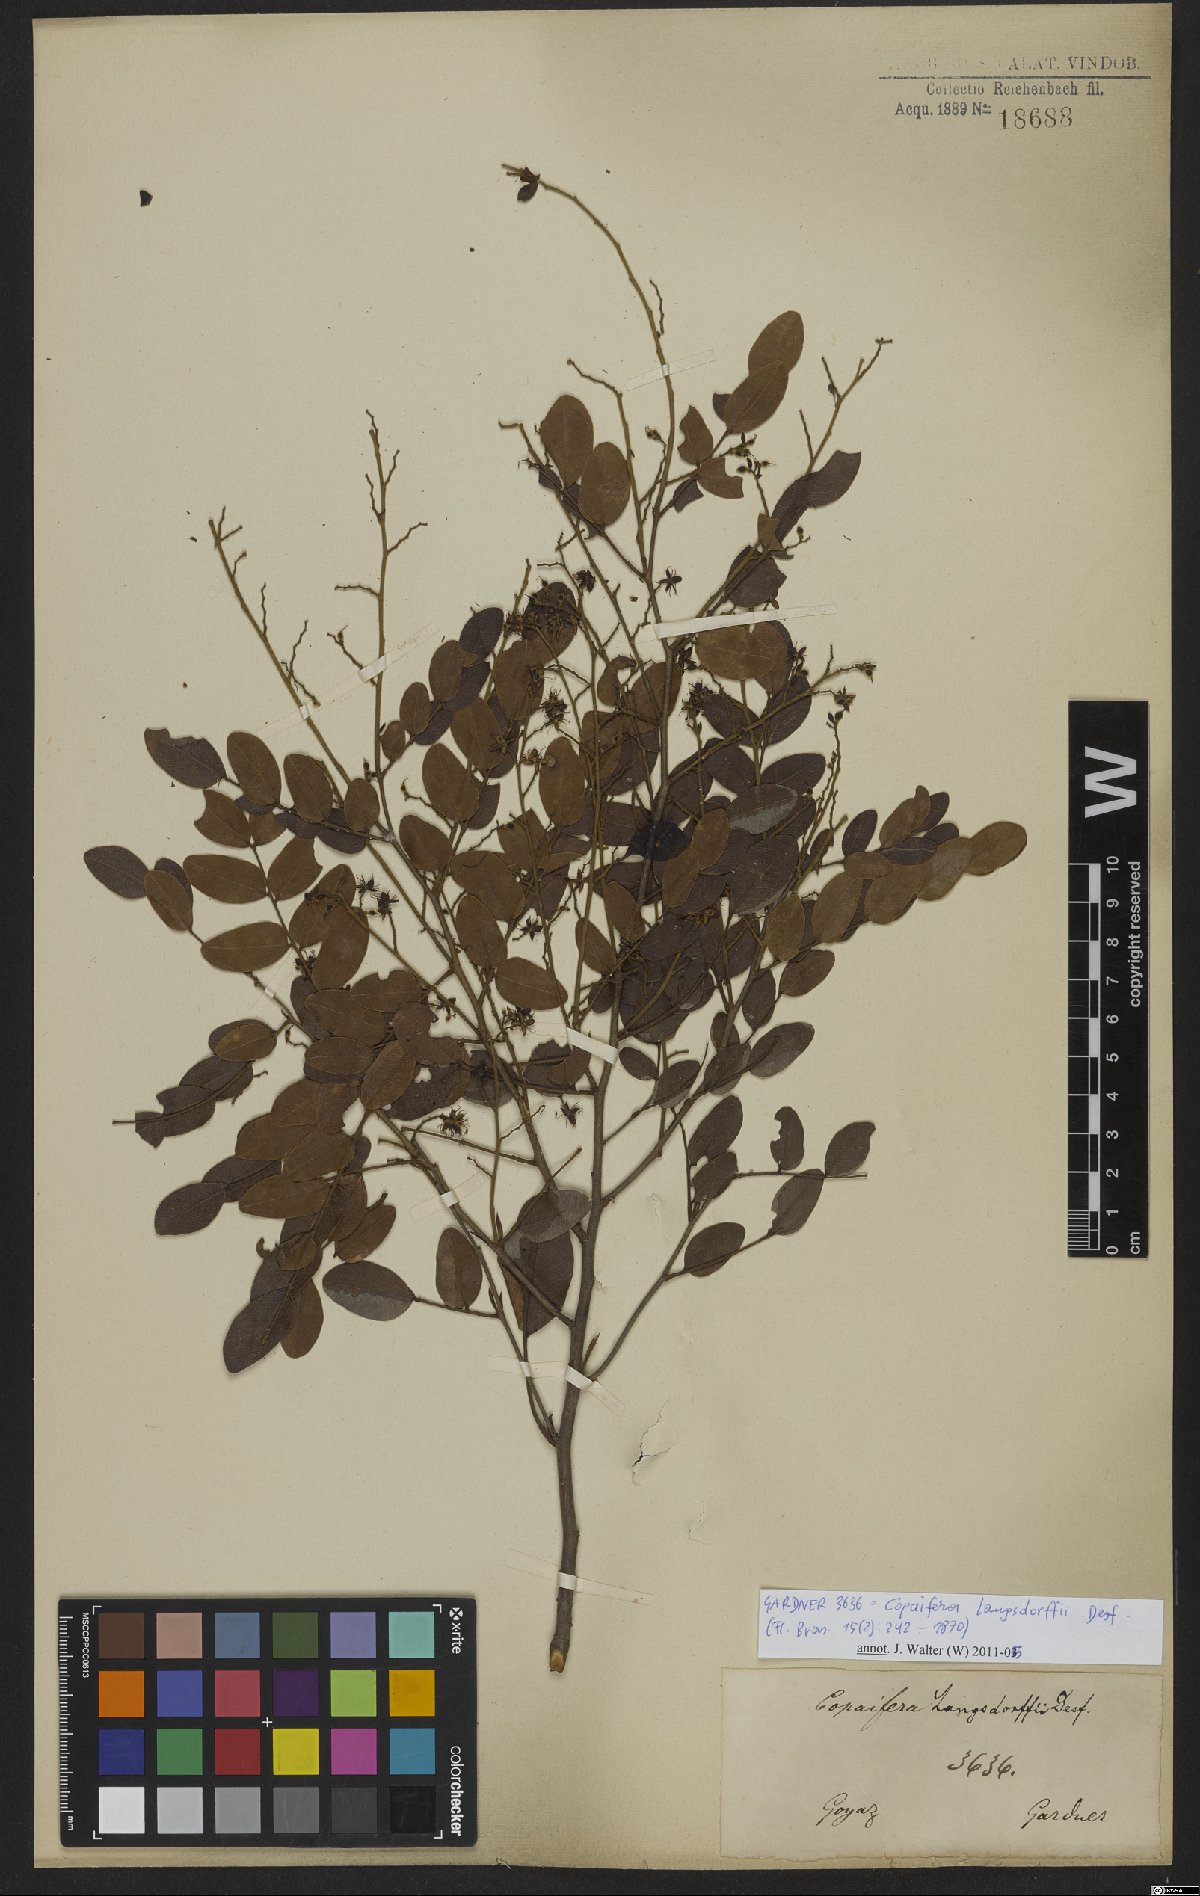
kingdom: Plantae
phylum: Tracheophyta
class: Magnoliopsida
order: Fabales
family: Fabaceae
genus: Copaifera
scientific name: Copaifera langsdorffii
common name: Brazilian diesel tree
